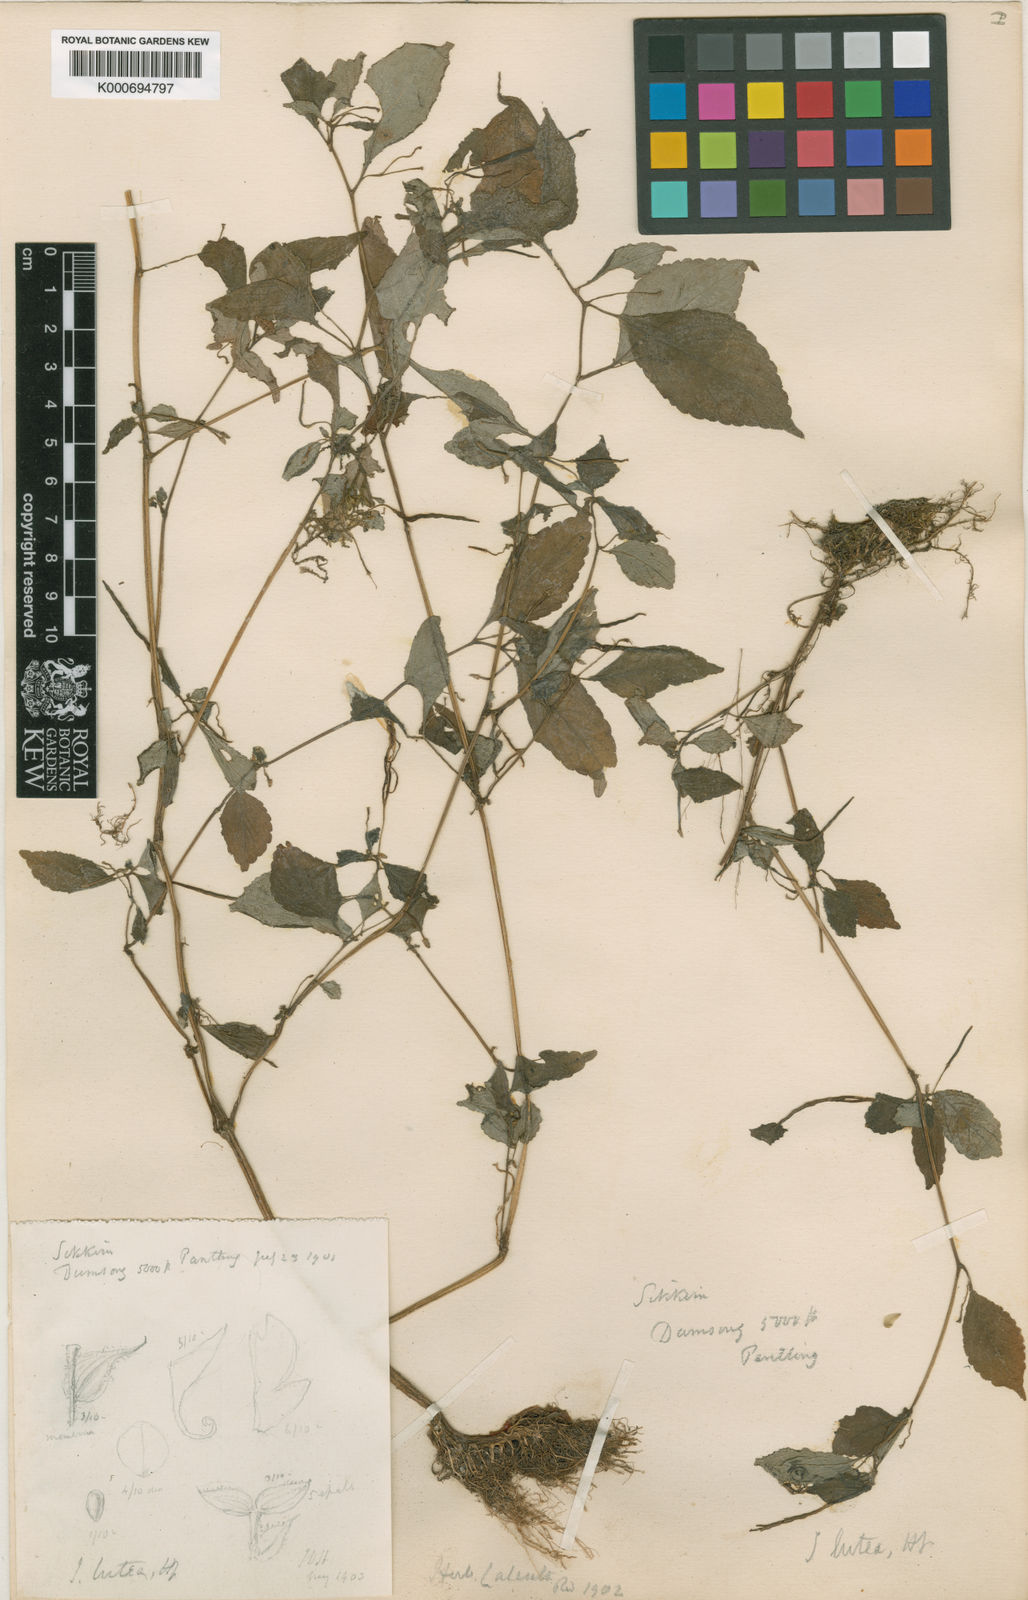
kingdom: Plantae
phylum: Tracheophyta
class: Magnoliopsida
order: Ericales
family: Balsaminaceae
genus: Impatiens
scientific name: Impatiens humilis
